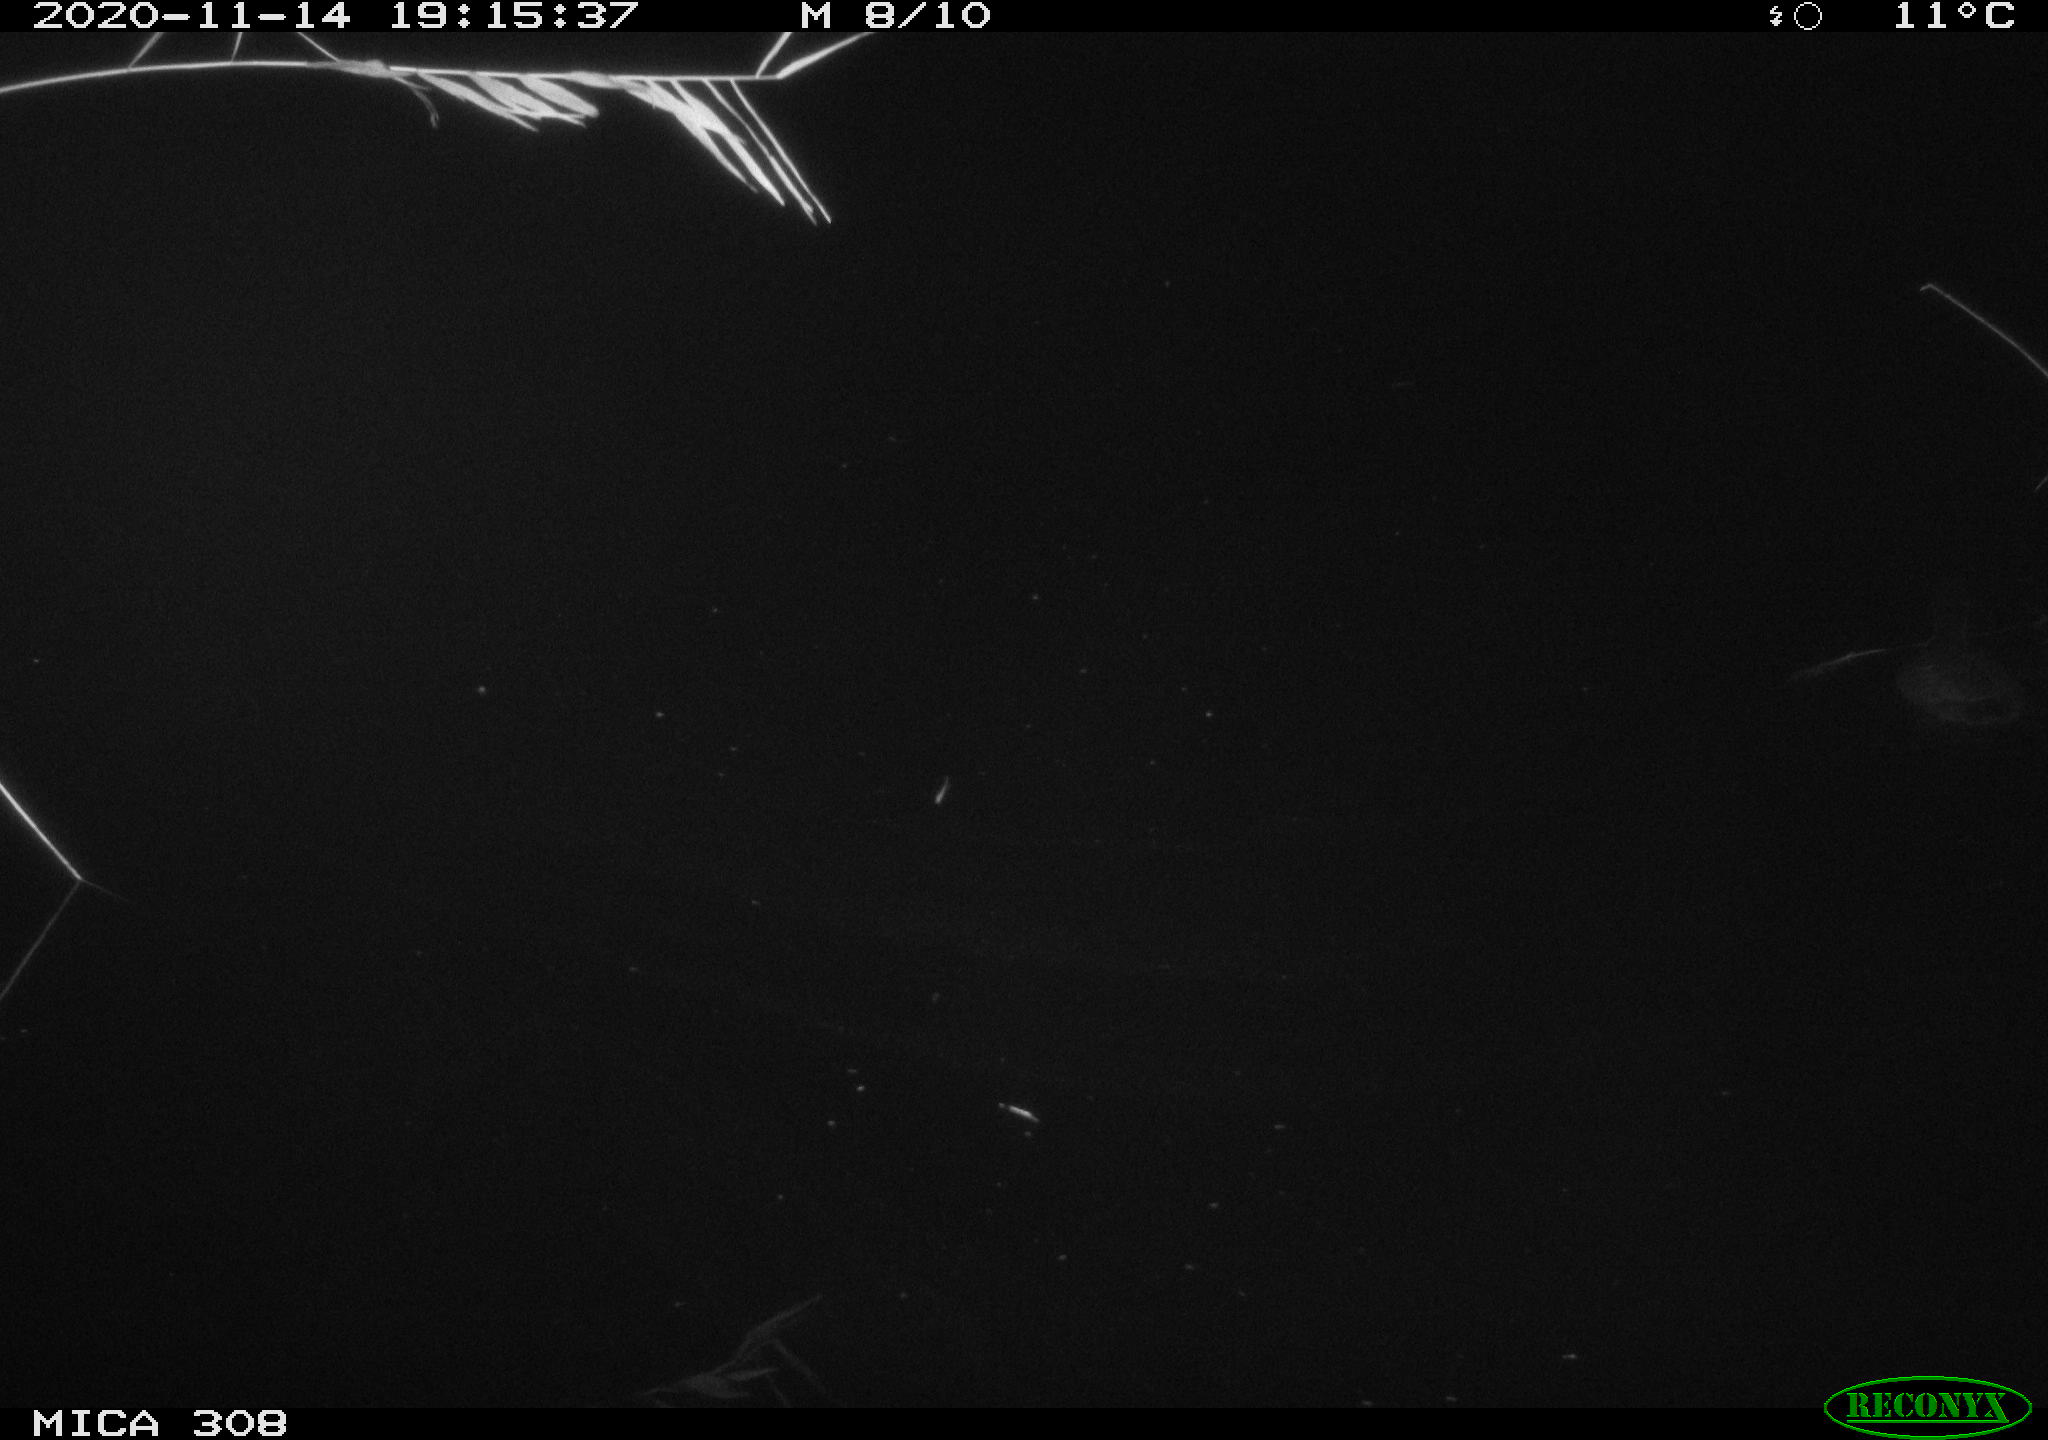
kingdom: Animalia
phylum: Chordata
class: Aves
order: Gruiformes
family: Rallidae
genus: Fulica
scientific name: Fulica atra
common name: Eurasian coot
